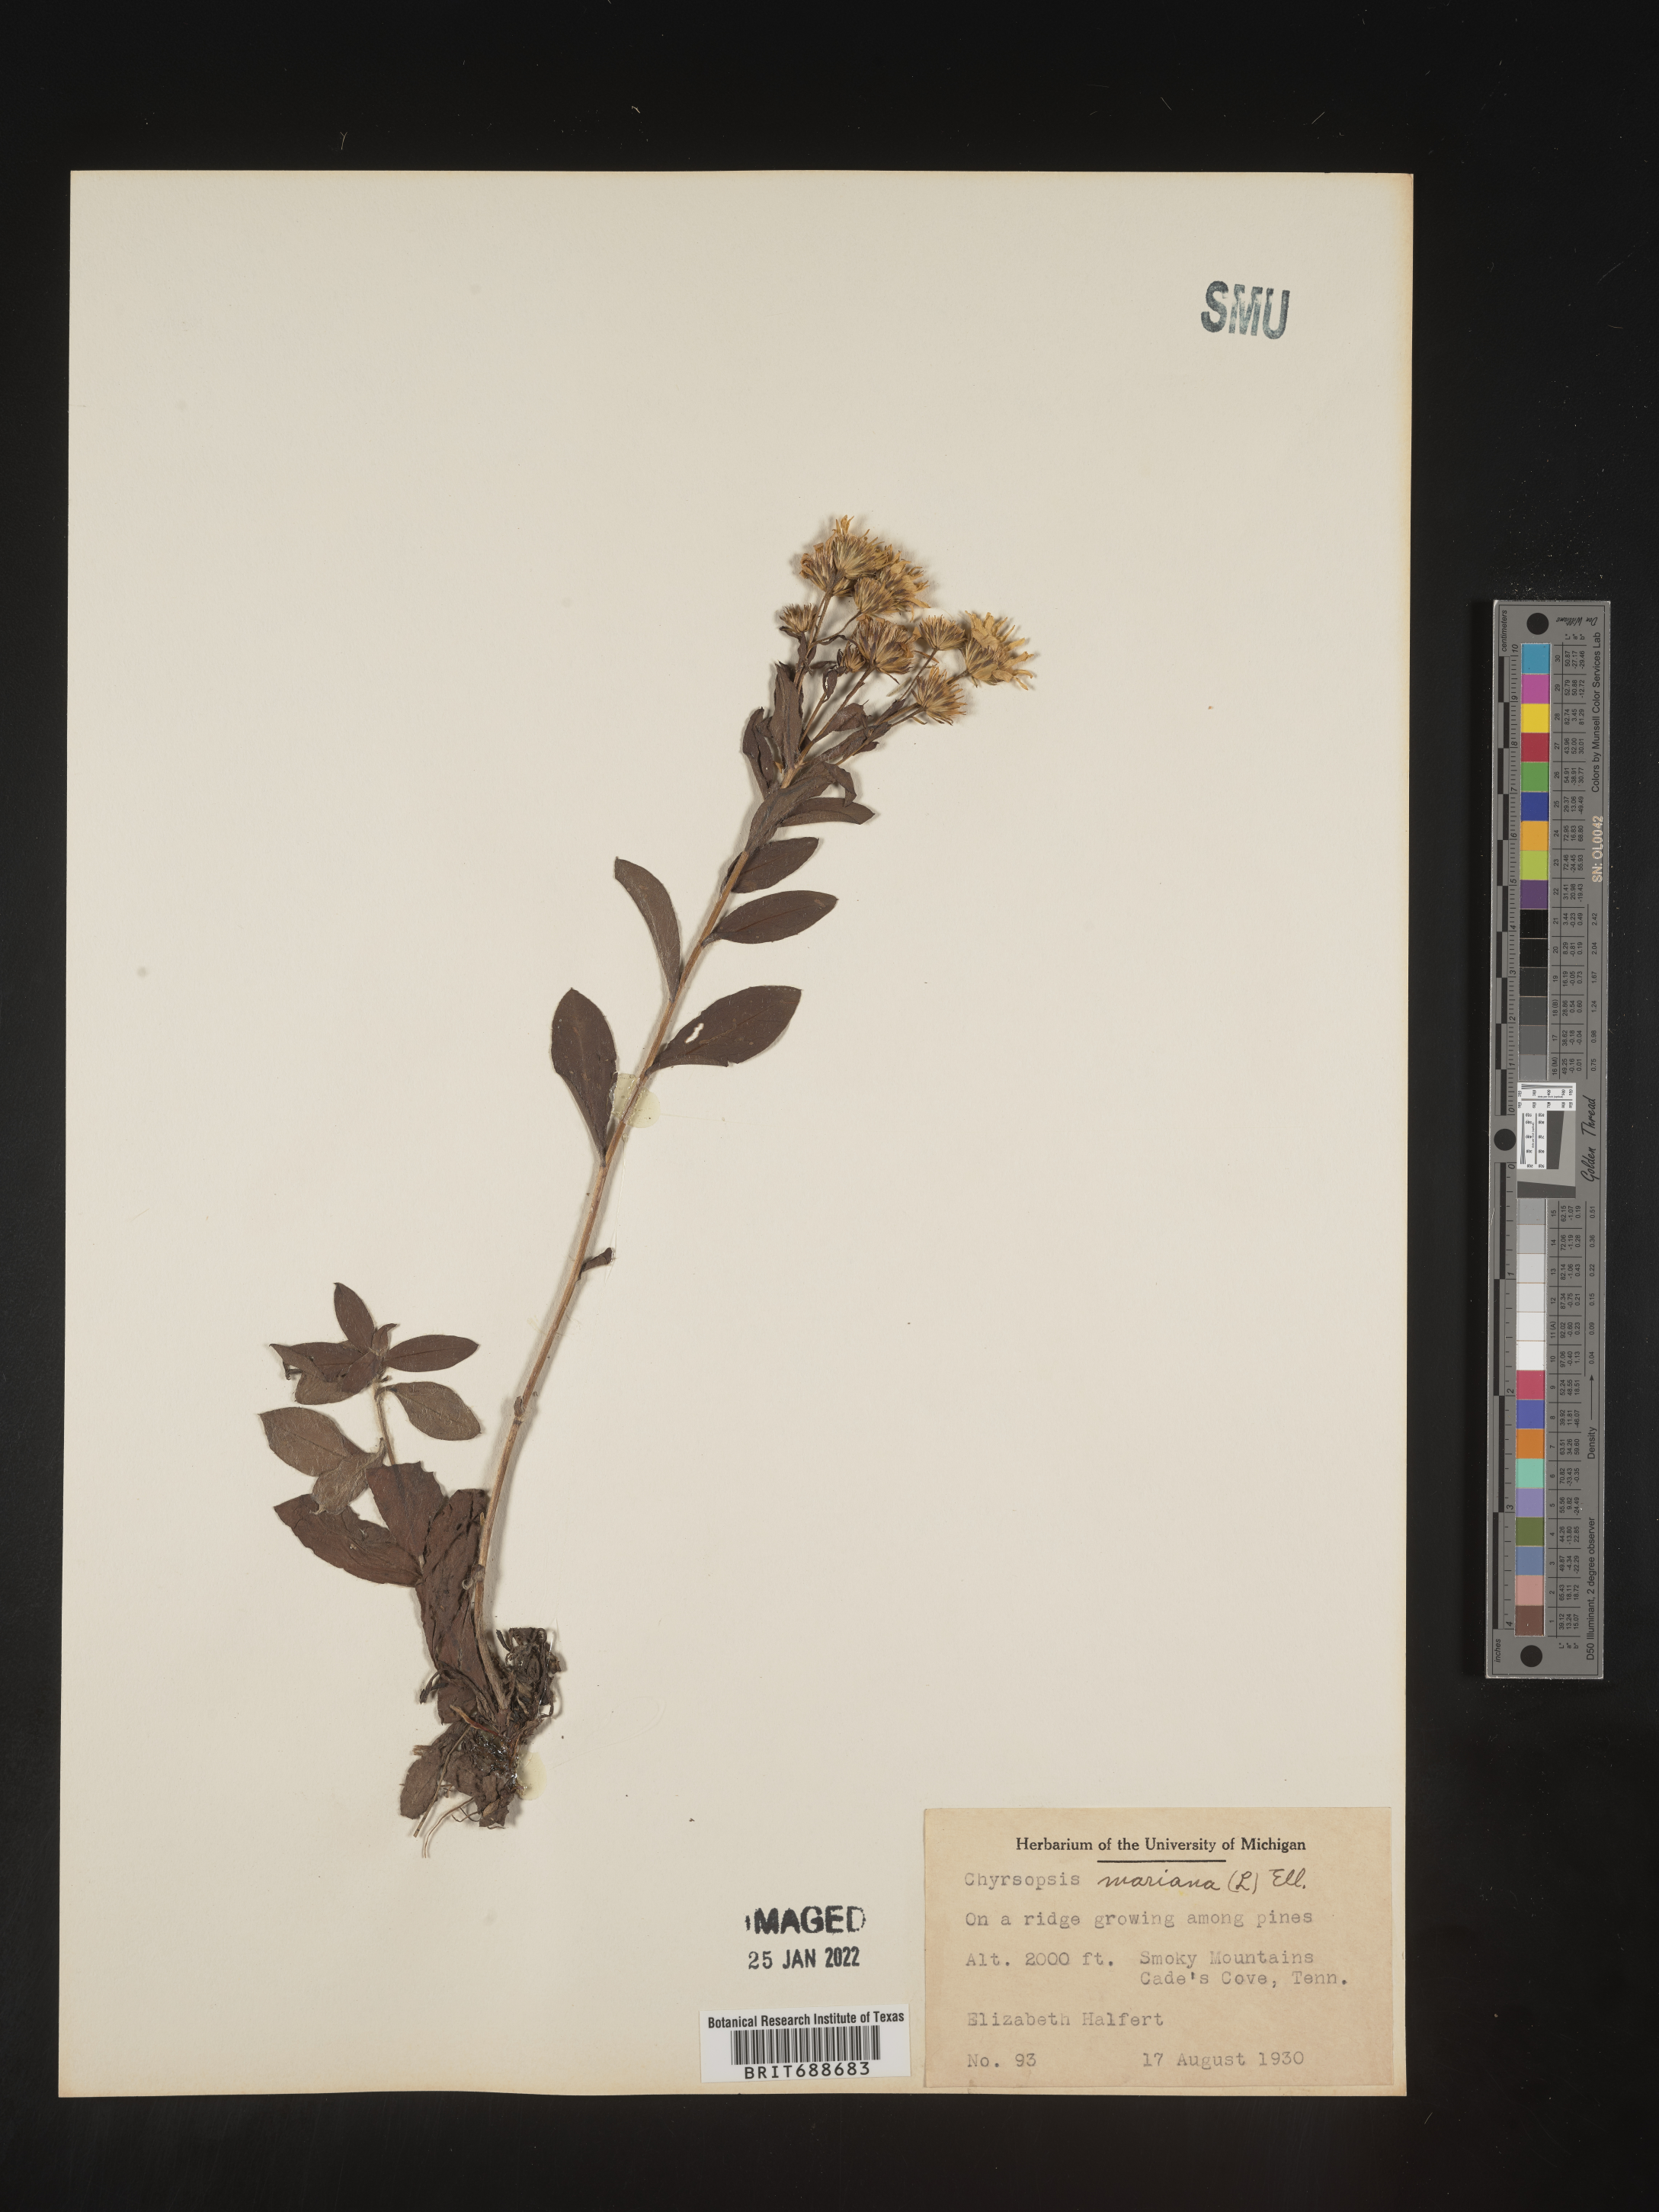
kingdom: Plantae
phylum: Tracheophyta
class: Magnoliopsida
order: Asterales
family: Asteraceae
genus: Chrysopsis
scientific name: Chrysopsis mariana
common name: Maryland golden-aster
